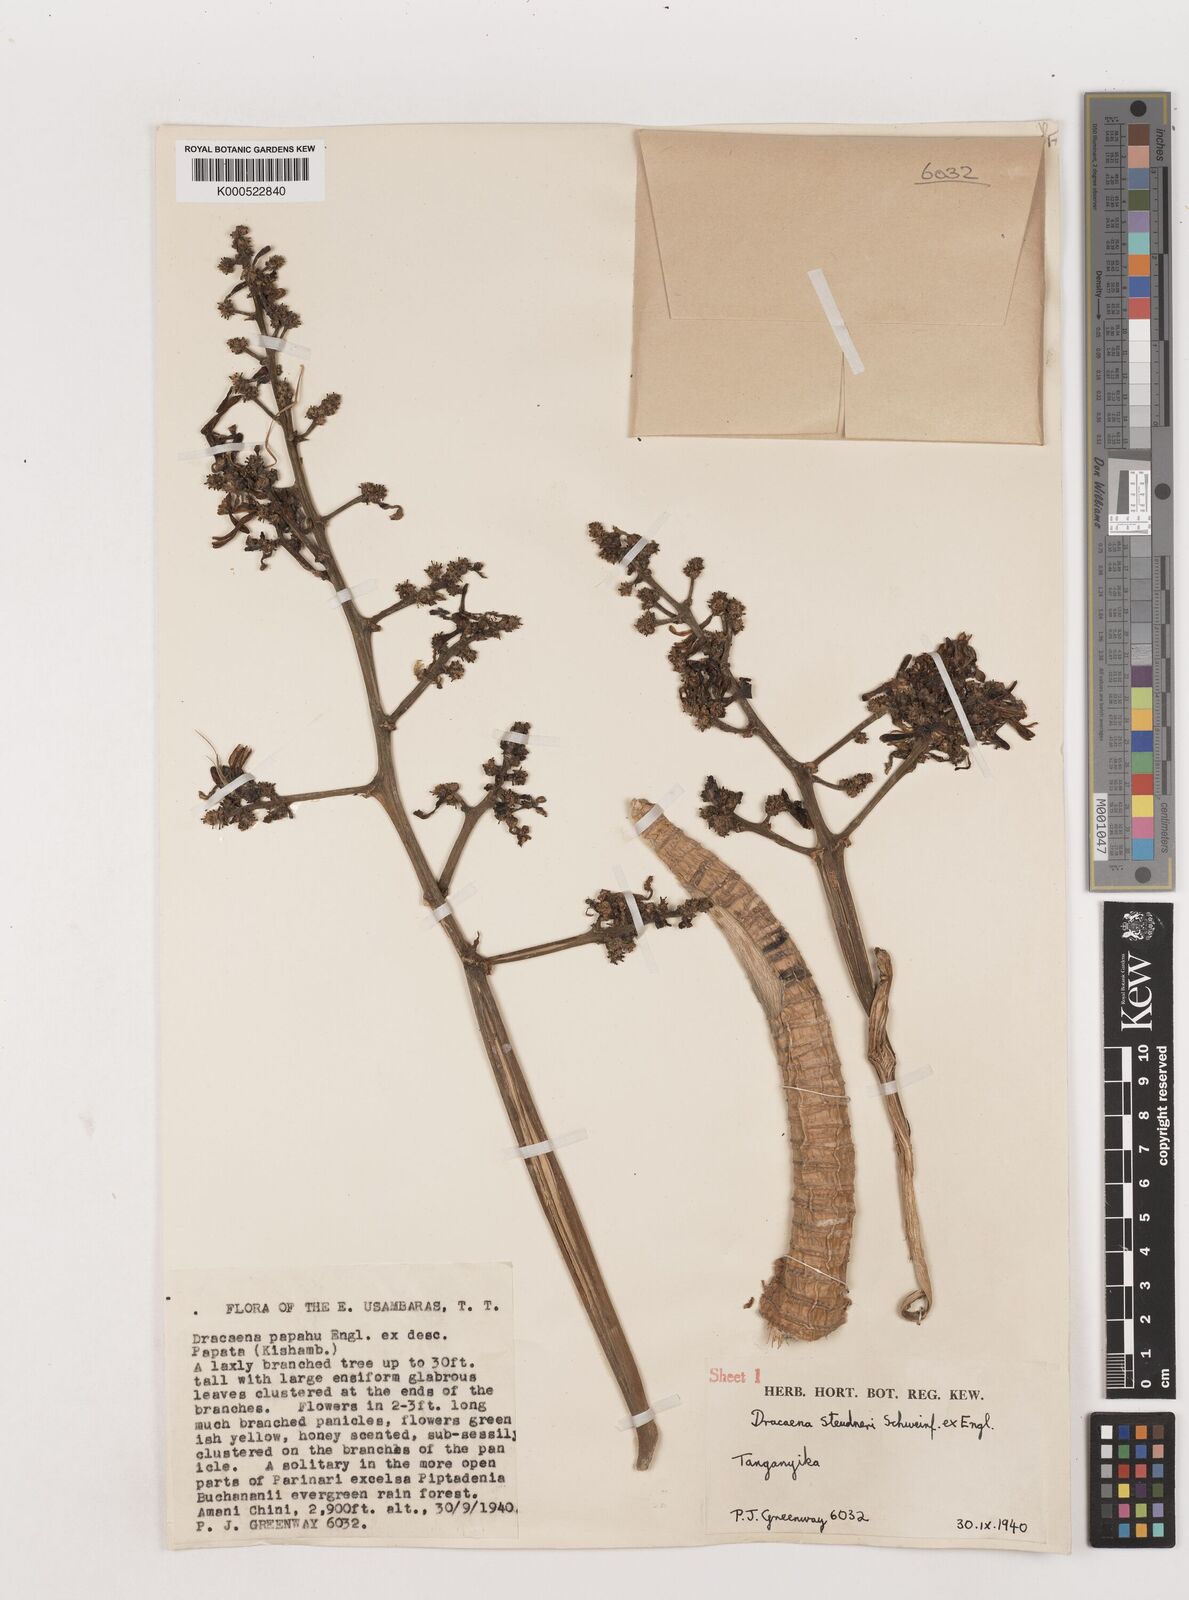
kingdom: Plantae
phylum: Tracheophyta
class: Liliopsida
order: Asparagales
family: Asparagaceae
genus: Dracaena
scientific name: Dracaena steudneri
